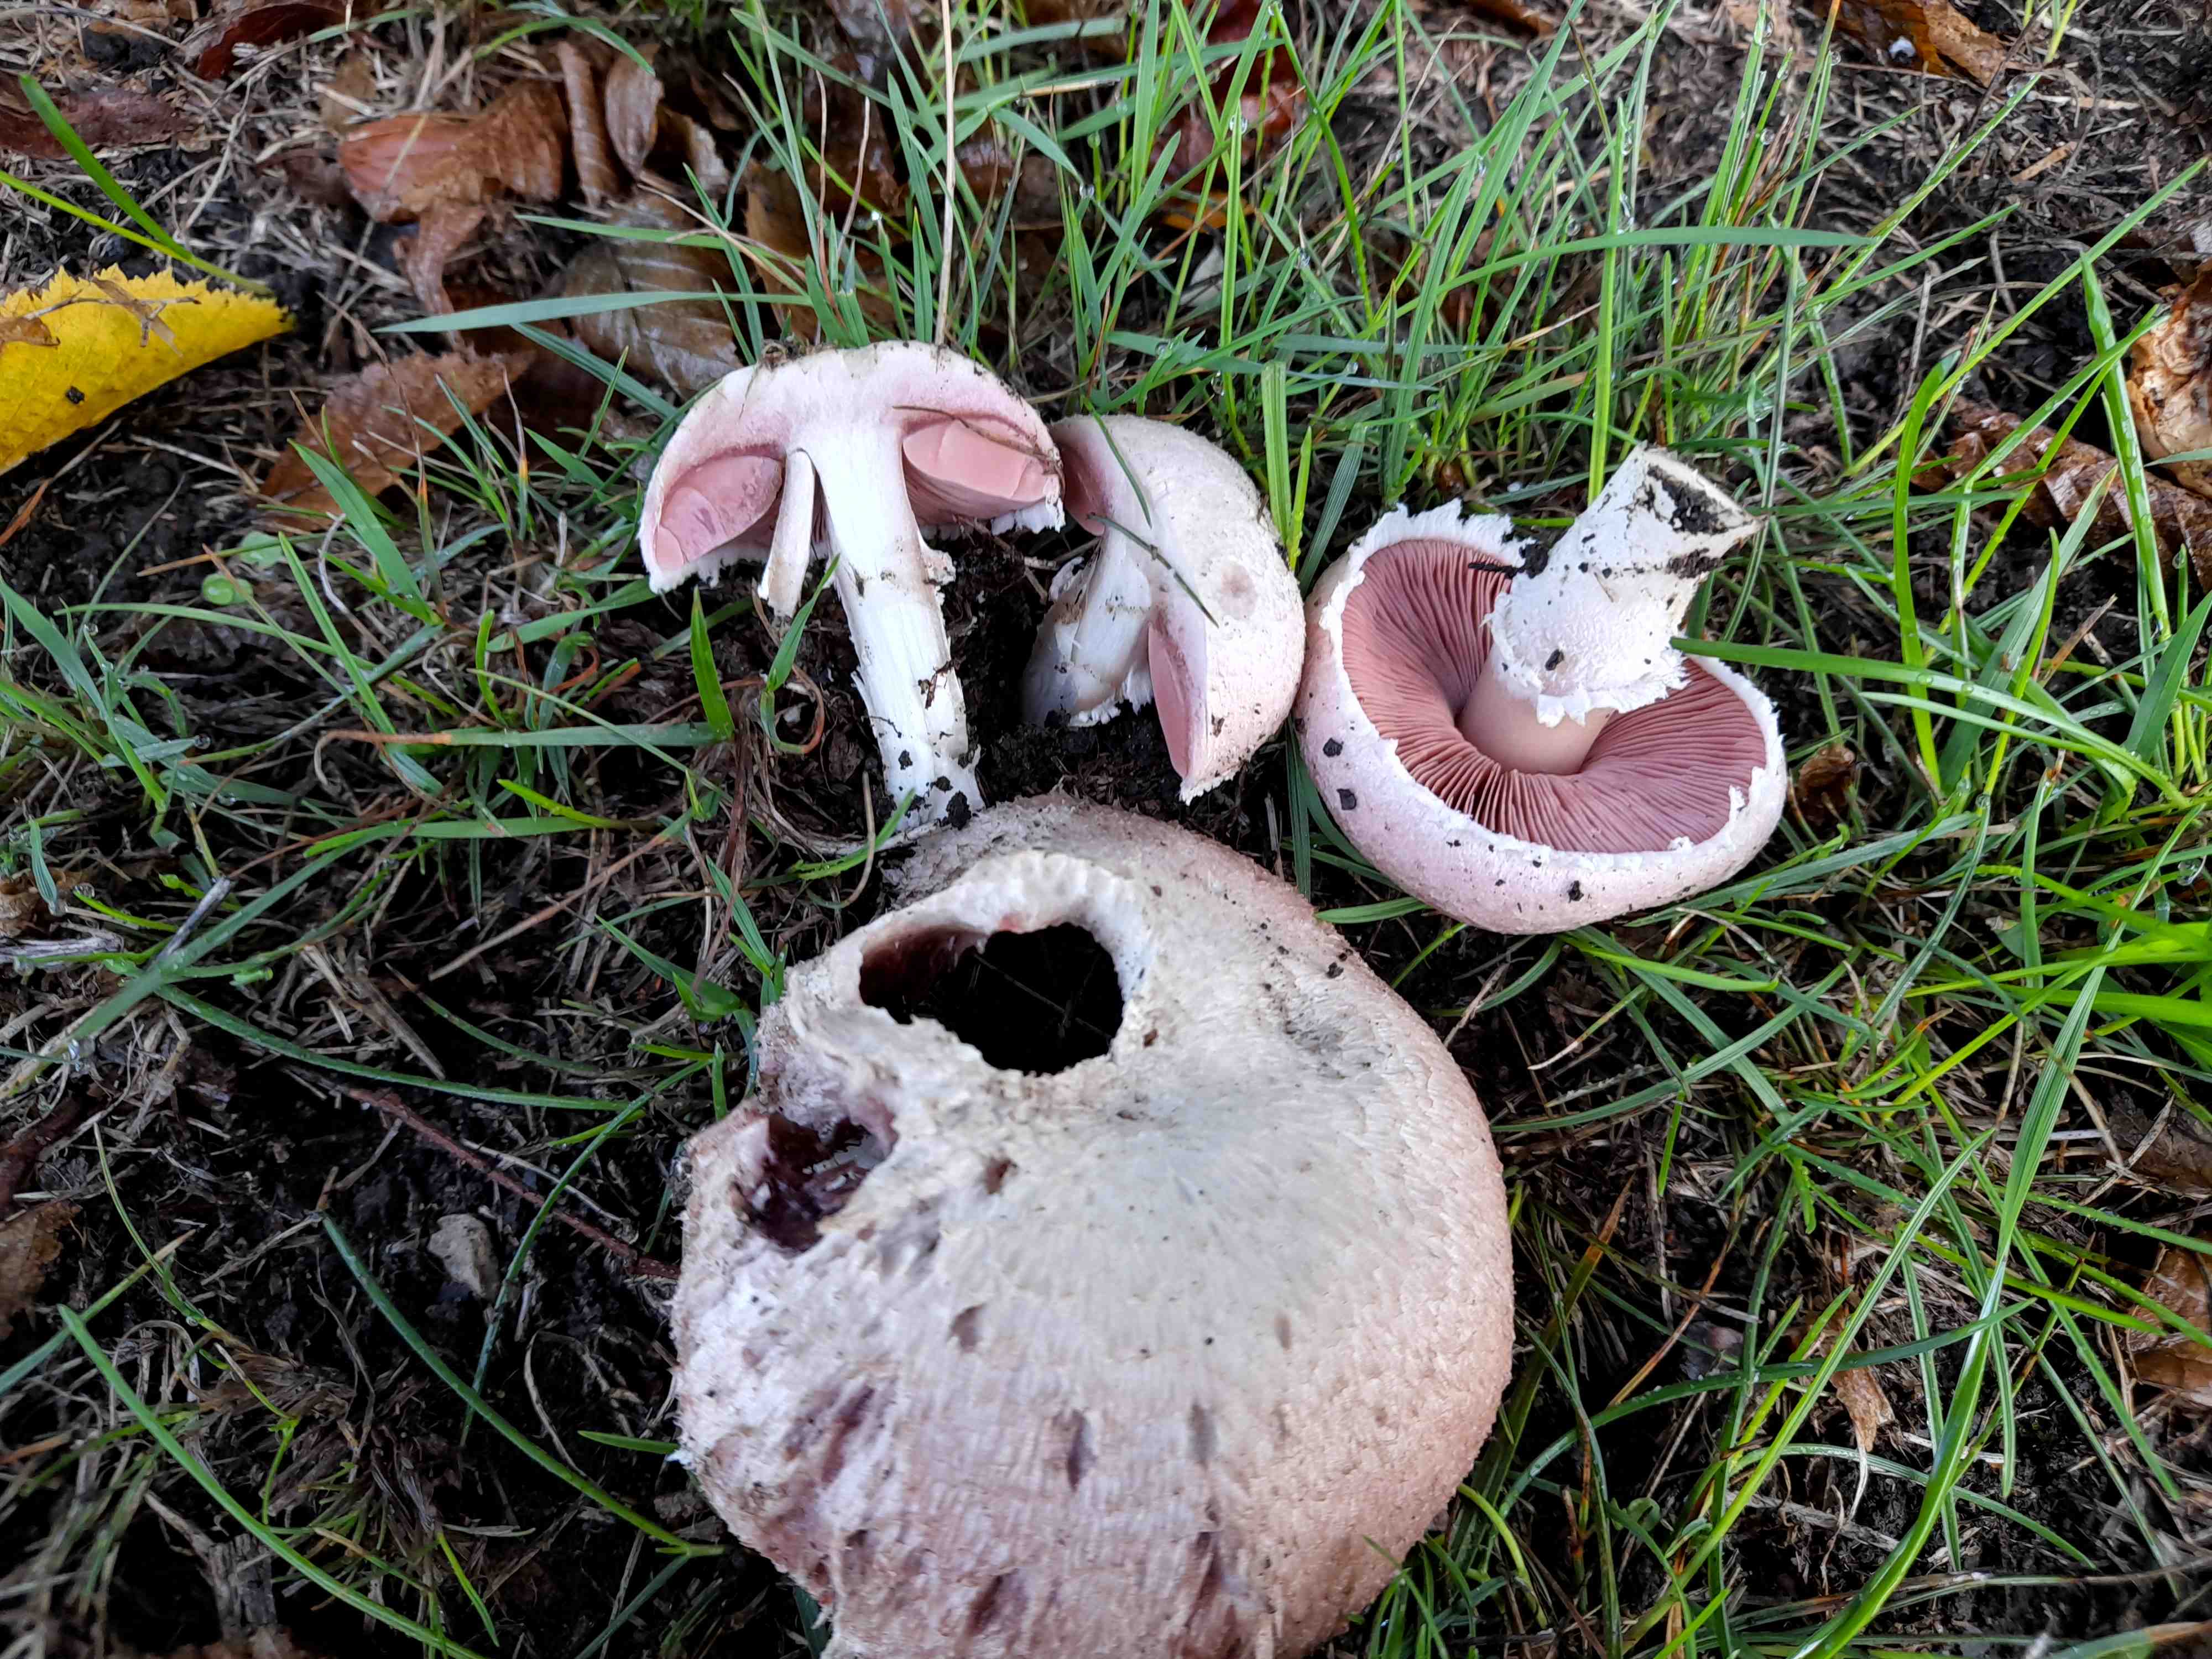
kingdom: Fungi
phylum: Basidiomycota
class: Agaricomycetes
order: Agaricales
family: Agaricaceae
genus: Agaricus
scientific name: Agaricus campestris
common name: mark-champignon
